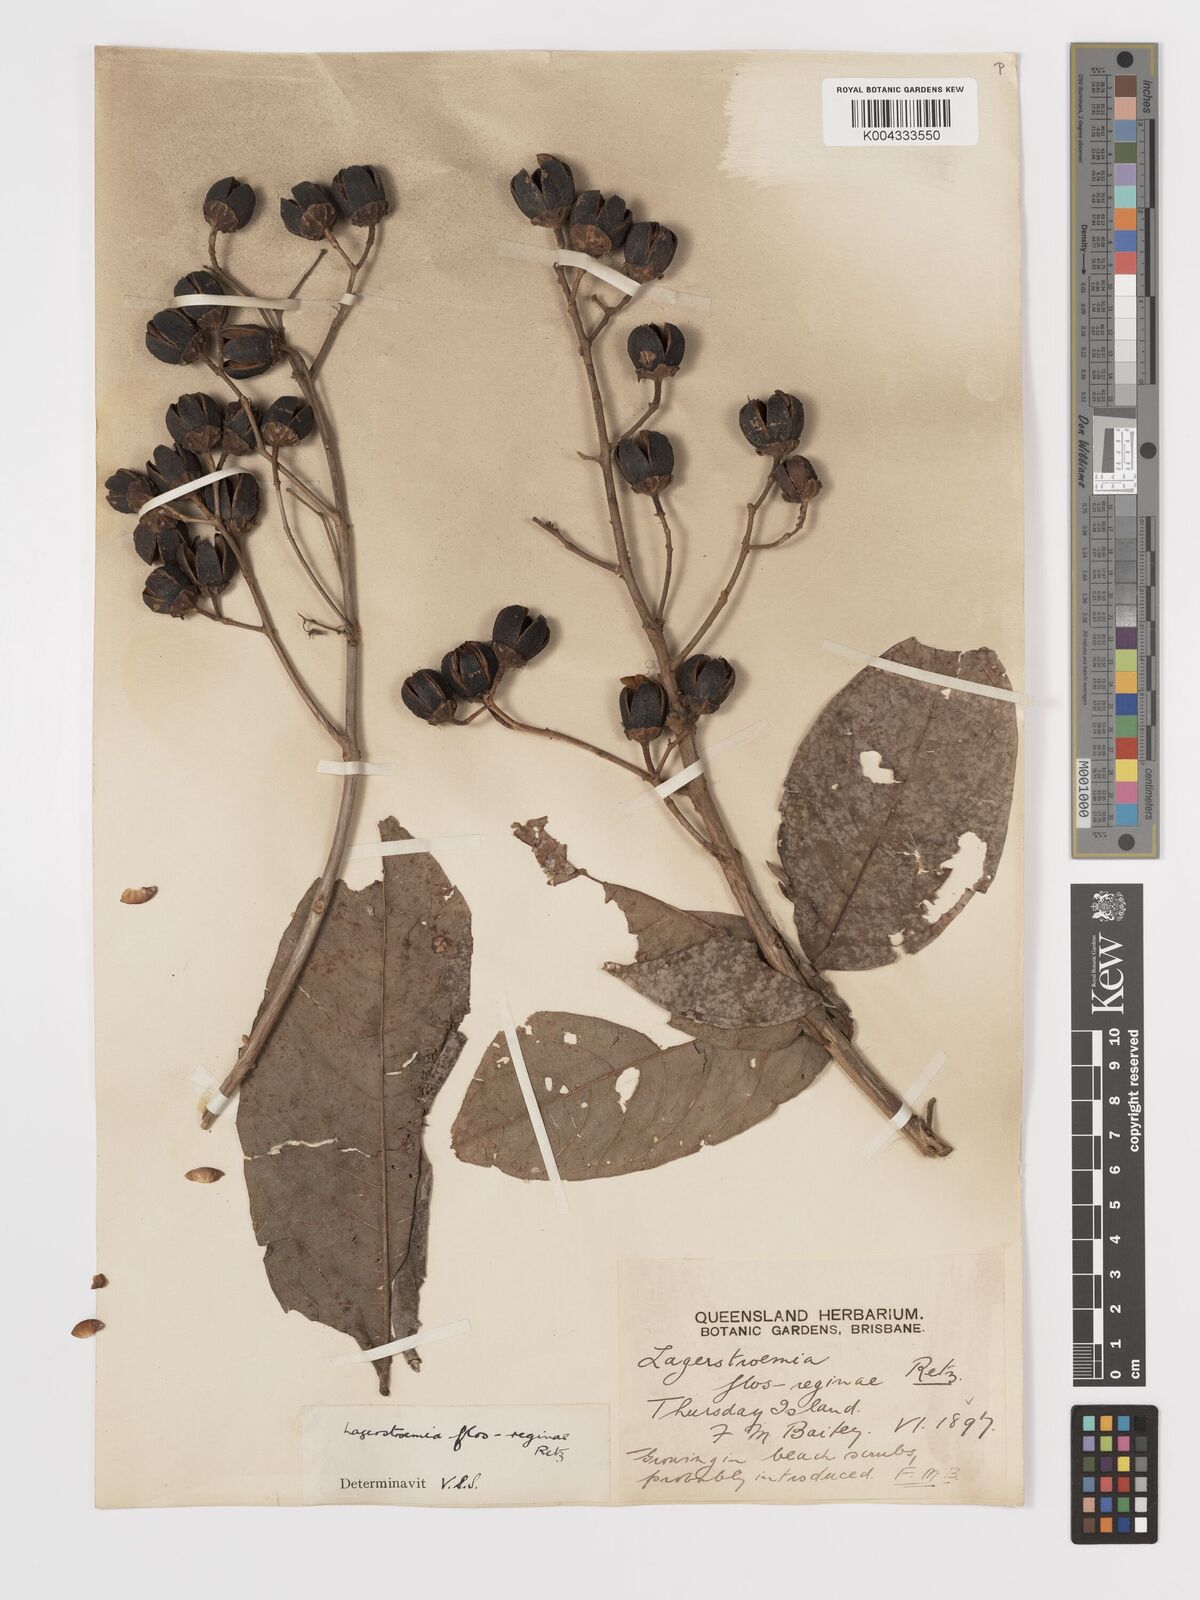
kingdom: Plantae
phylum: Tracheophyta
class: Magnoliopsida
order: Myrtales
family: Lythraceae
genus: Lagerstroemia
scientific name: Lagerstroemia speciosa
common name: Queen's crape-myrtle
